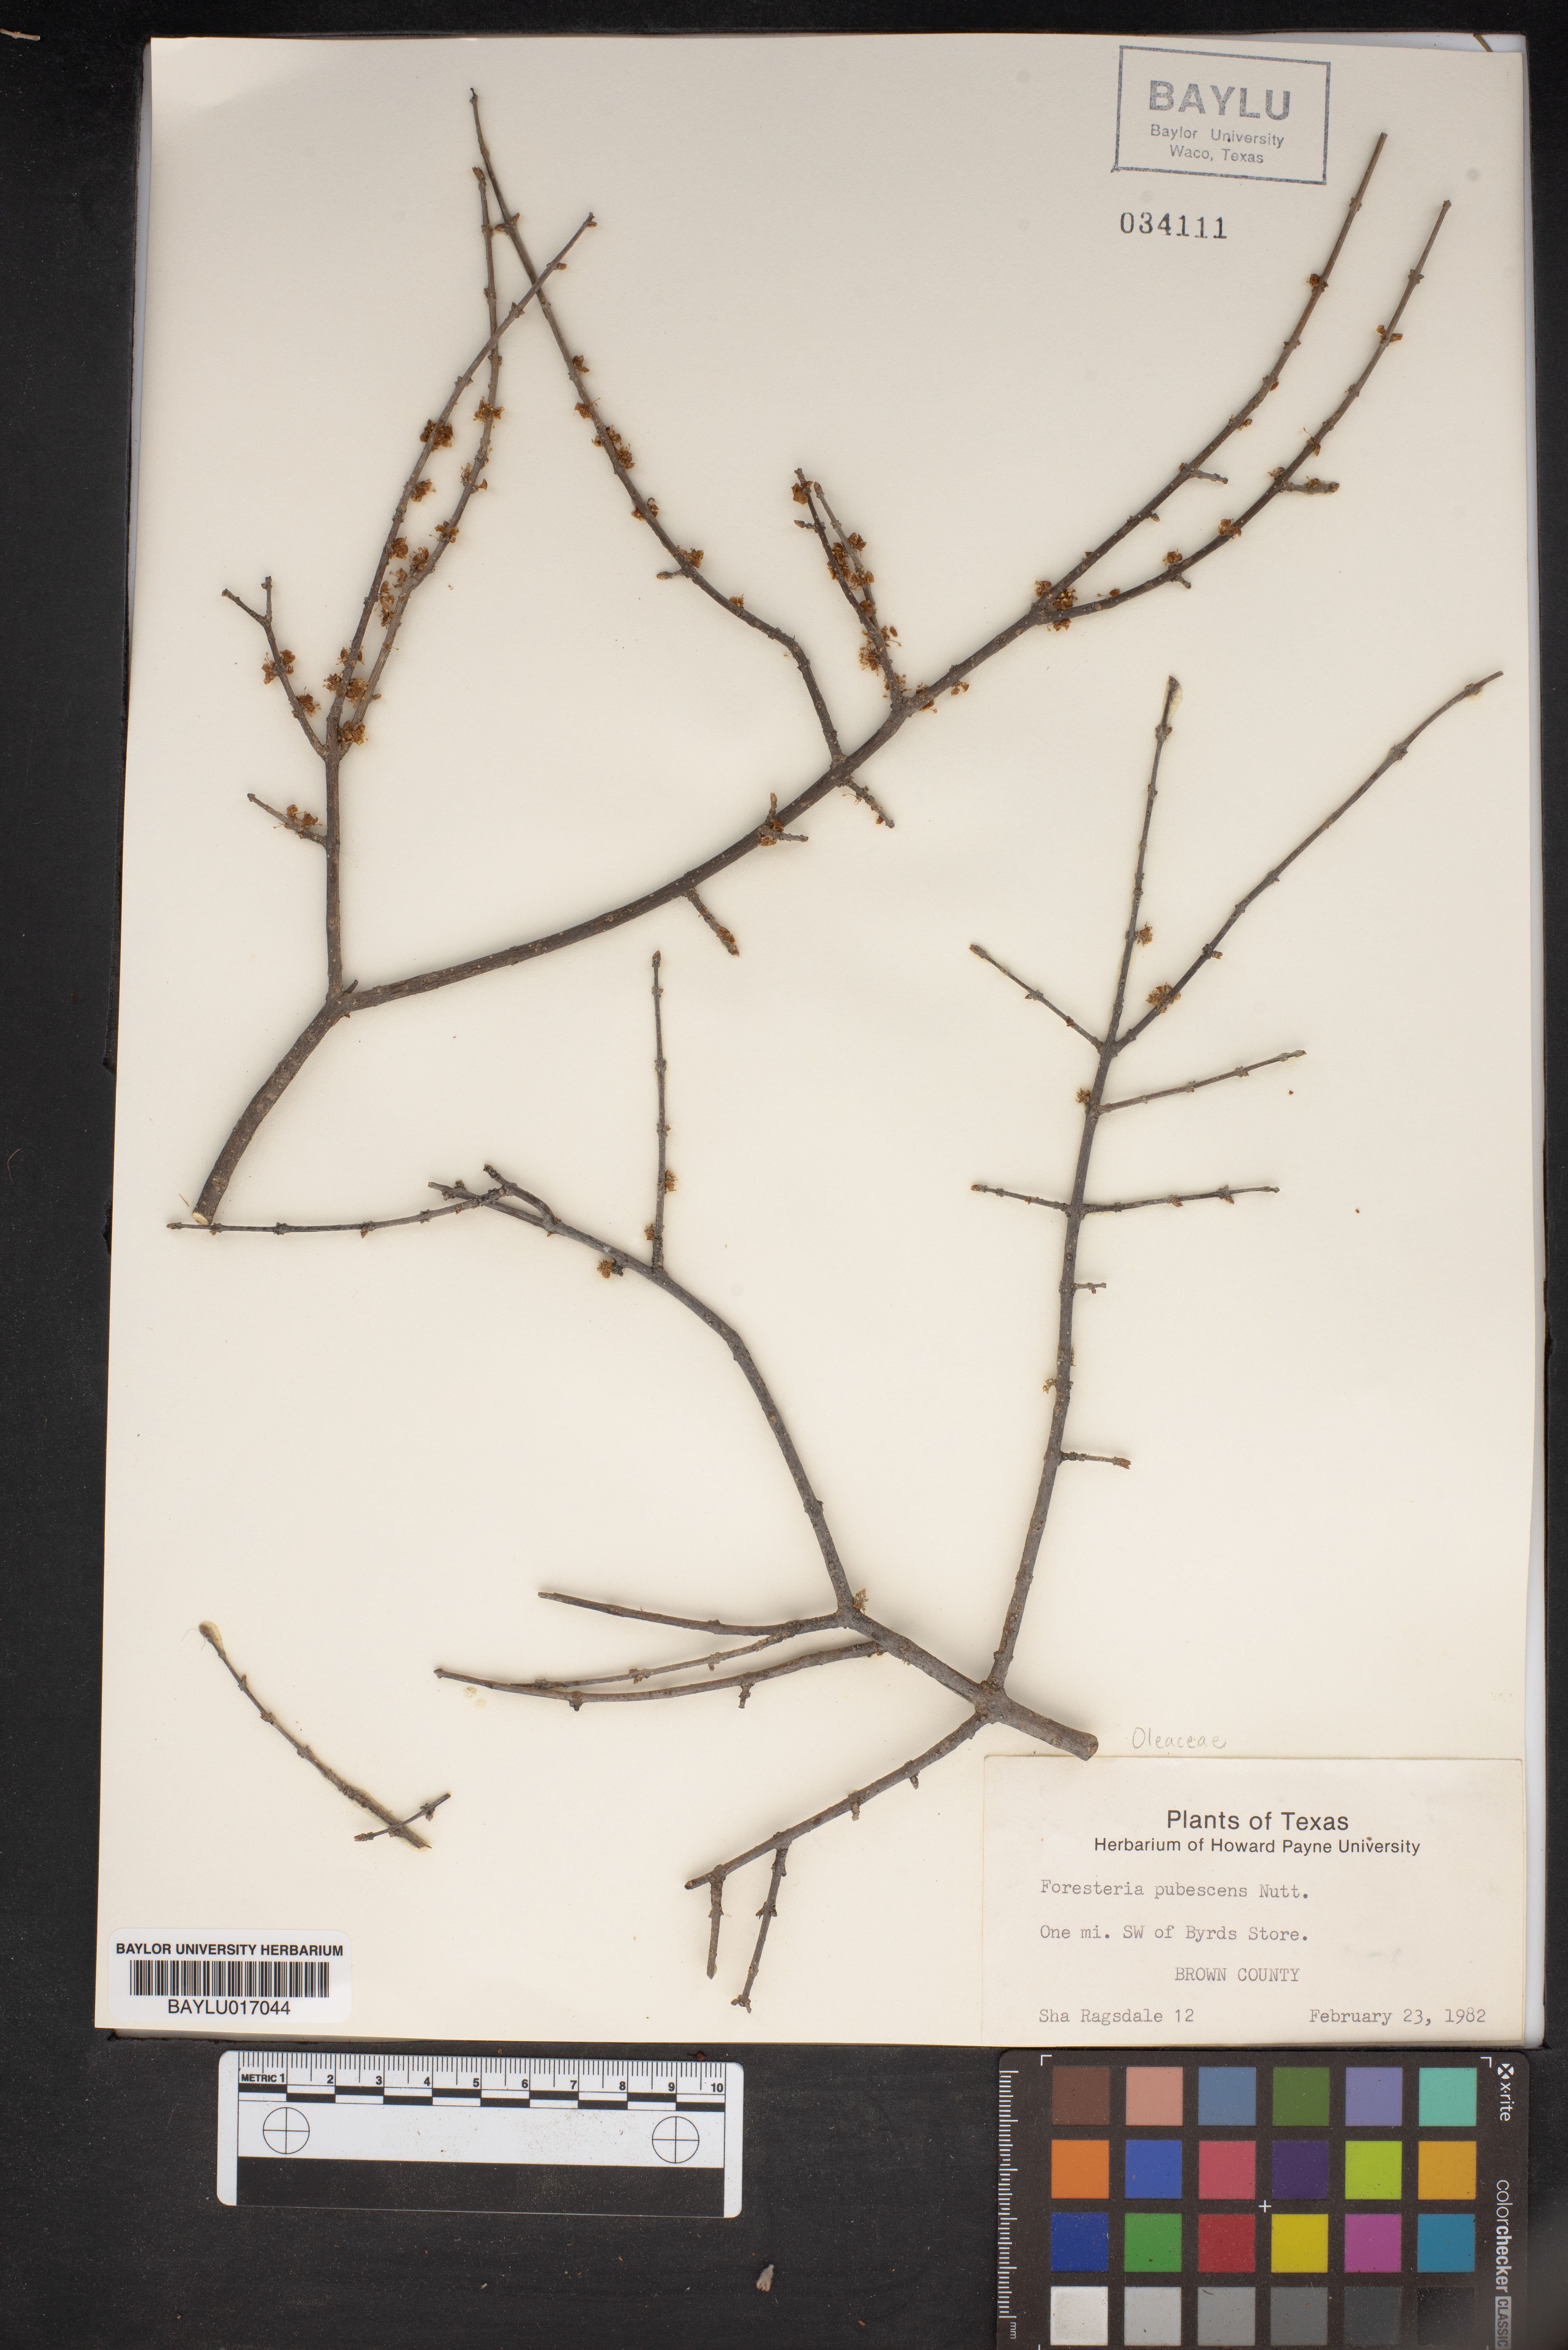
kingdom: Plantae
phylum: Tracheophyta
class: Magnoliopsida
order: Lamiales
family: Oleaceae
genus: Forestiera
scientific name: Forestiera pubescens
